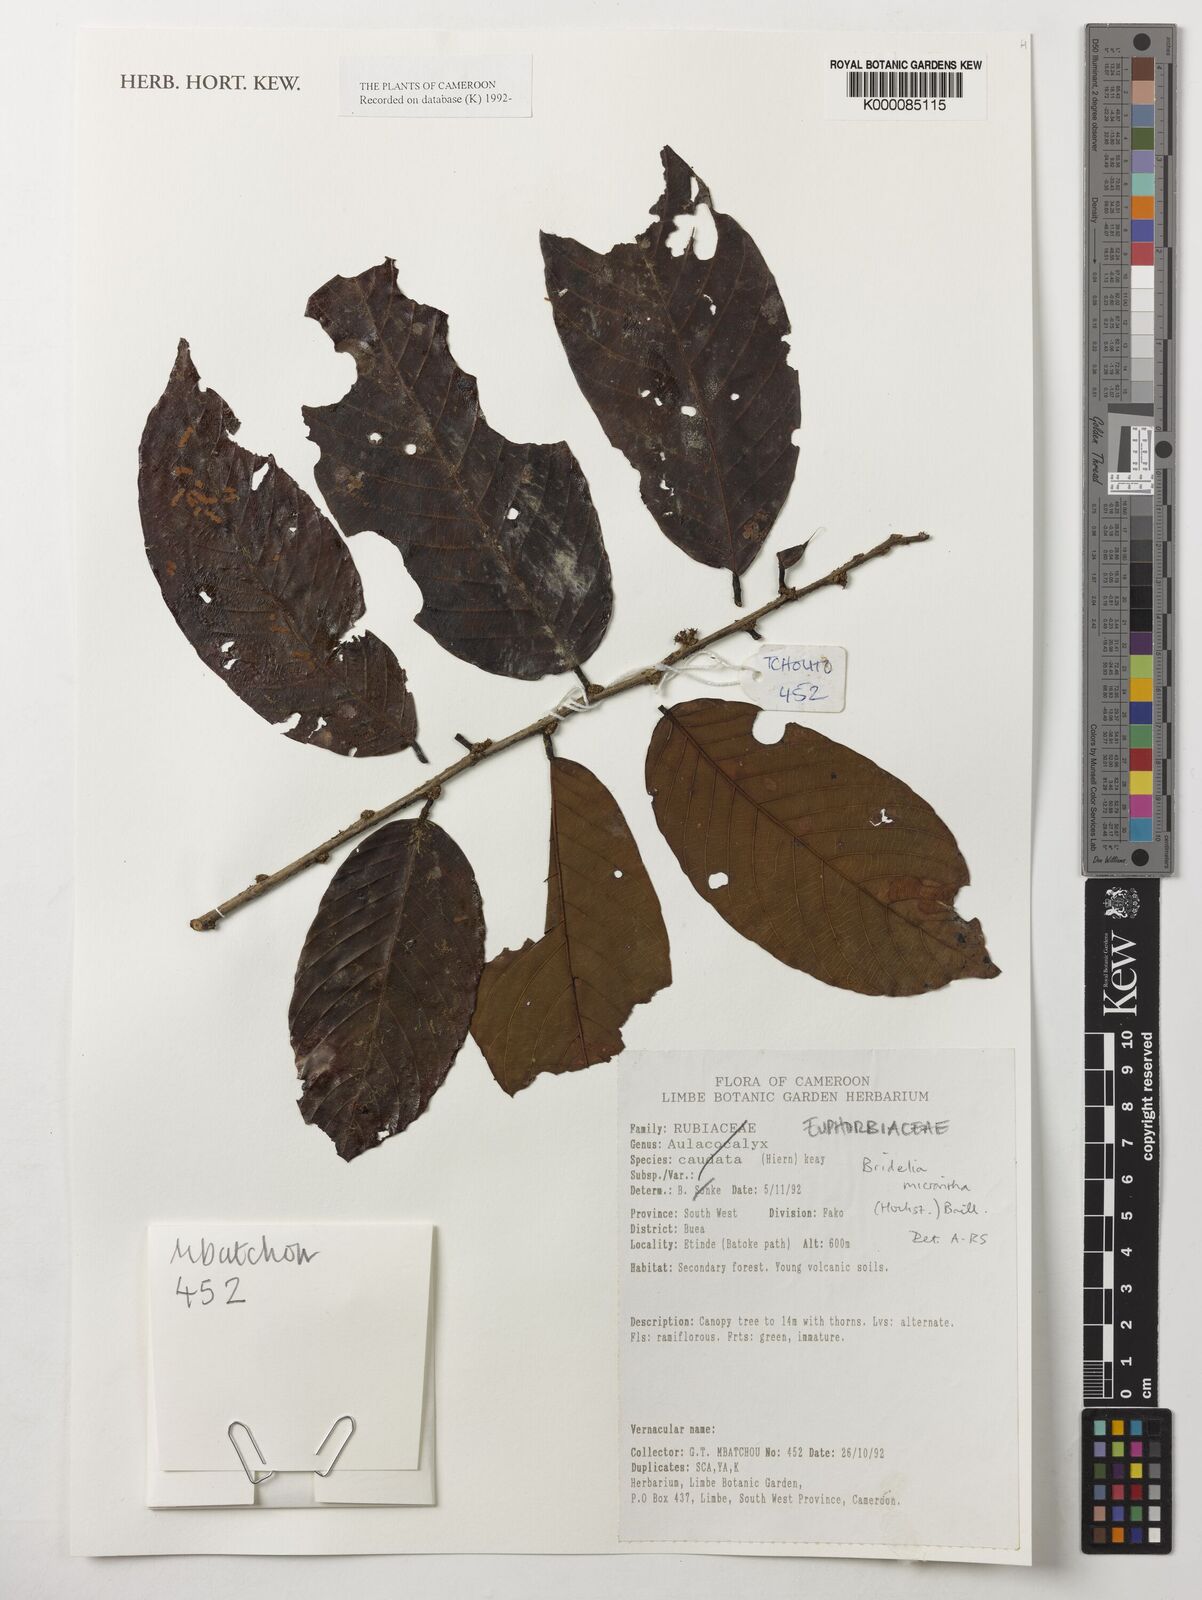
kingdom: Plantae
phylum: Tracheophyta
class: Magnoliopsida
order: Malpighiales
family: Phyllanthaceae
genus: Bridelia
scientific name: Bridelia micrantha
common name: Bridelia
